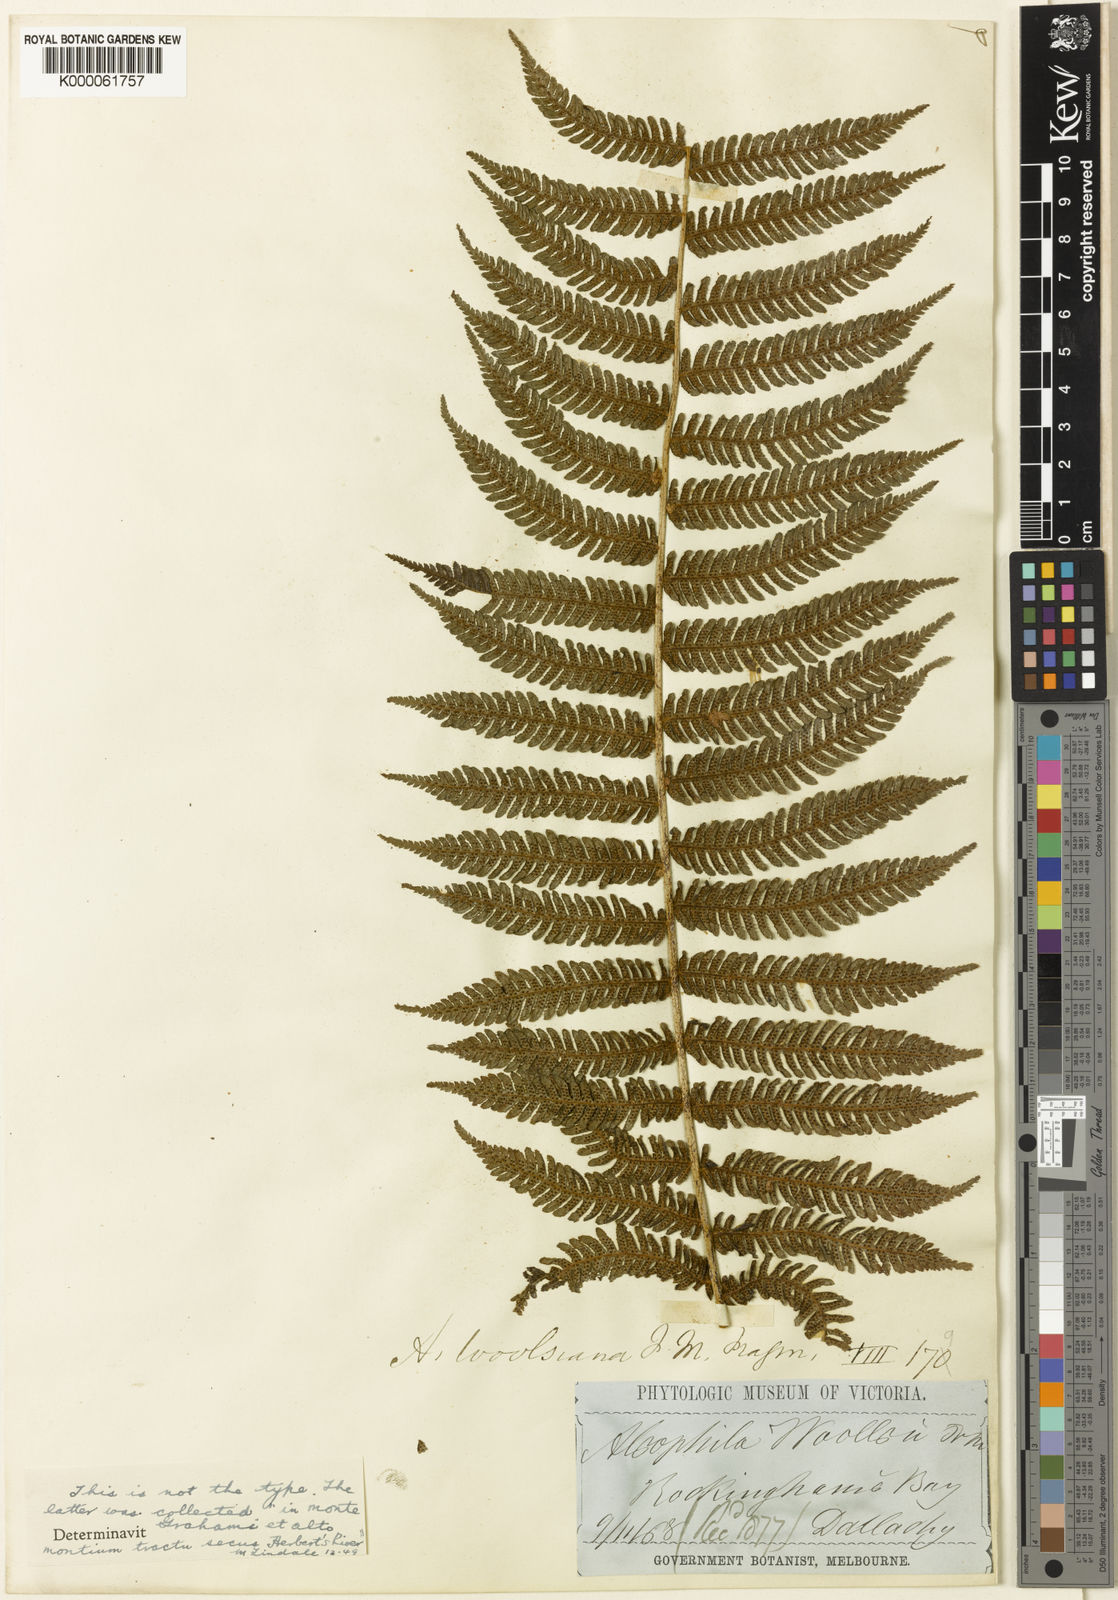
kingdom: Plantae
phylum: Tracheophyta
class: Polypodiopsida
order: Cyatheales
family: Cyatheaceae
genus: Alsophila
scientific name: Alsophila woollsiana
